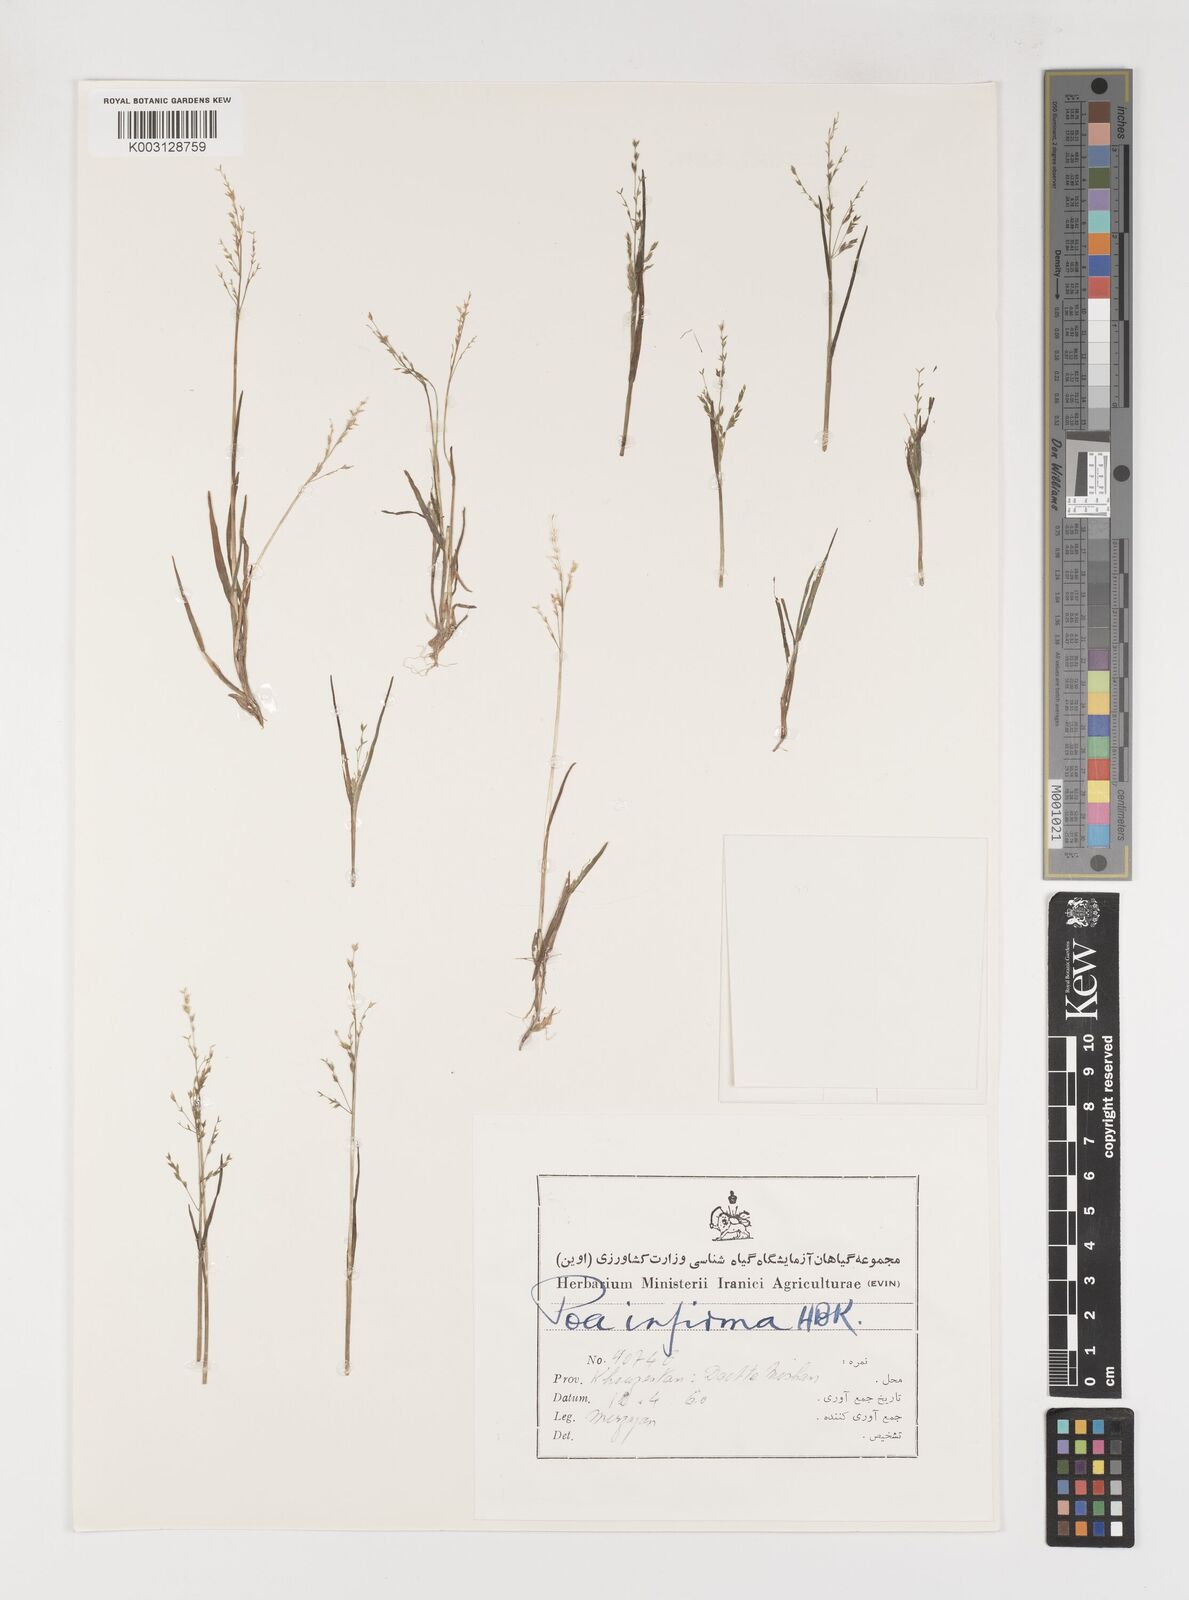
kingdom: Plantae
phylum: Tracheophyta
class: Liliopsida
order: Poales
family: Poaceae
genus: Poa
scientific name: Poa infirma
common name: Weak bluegrass
